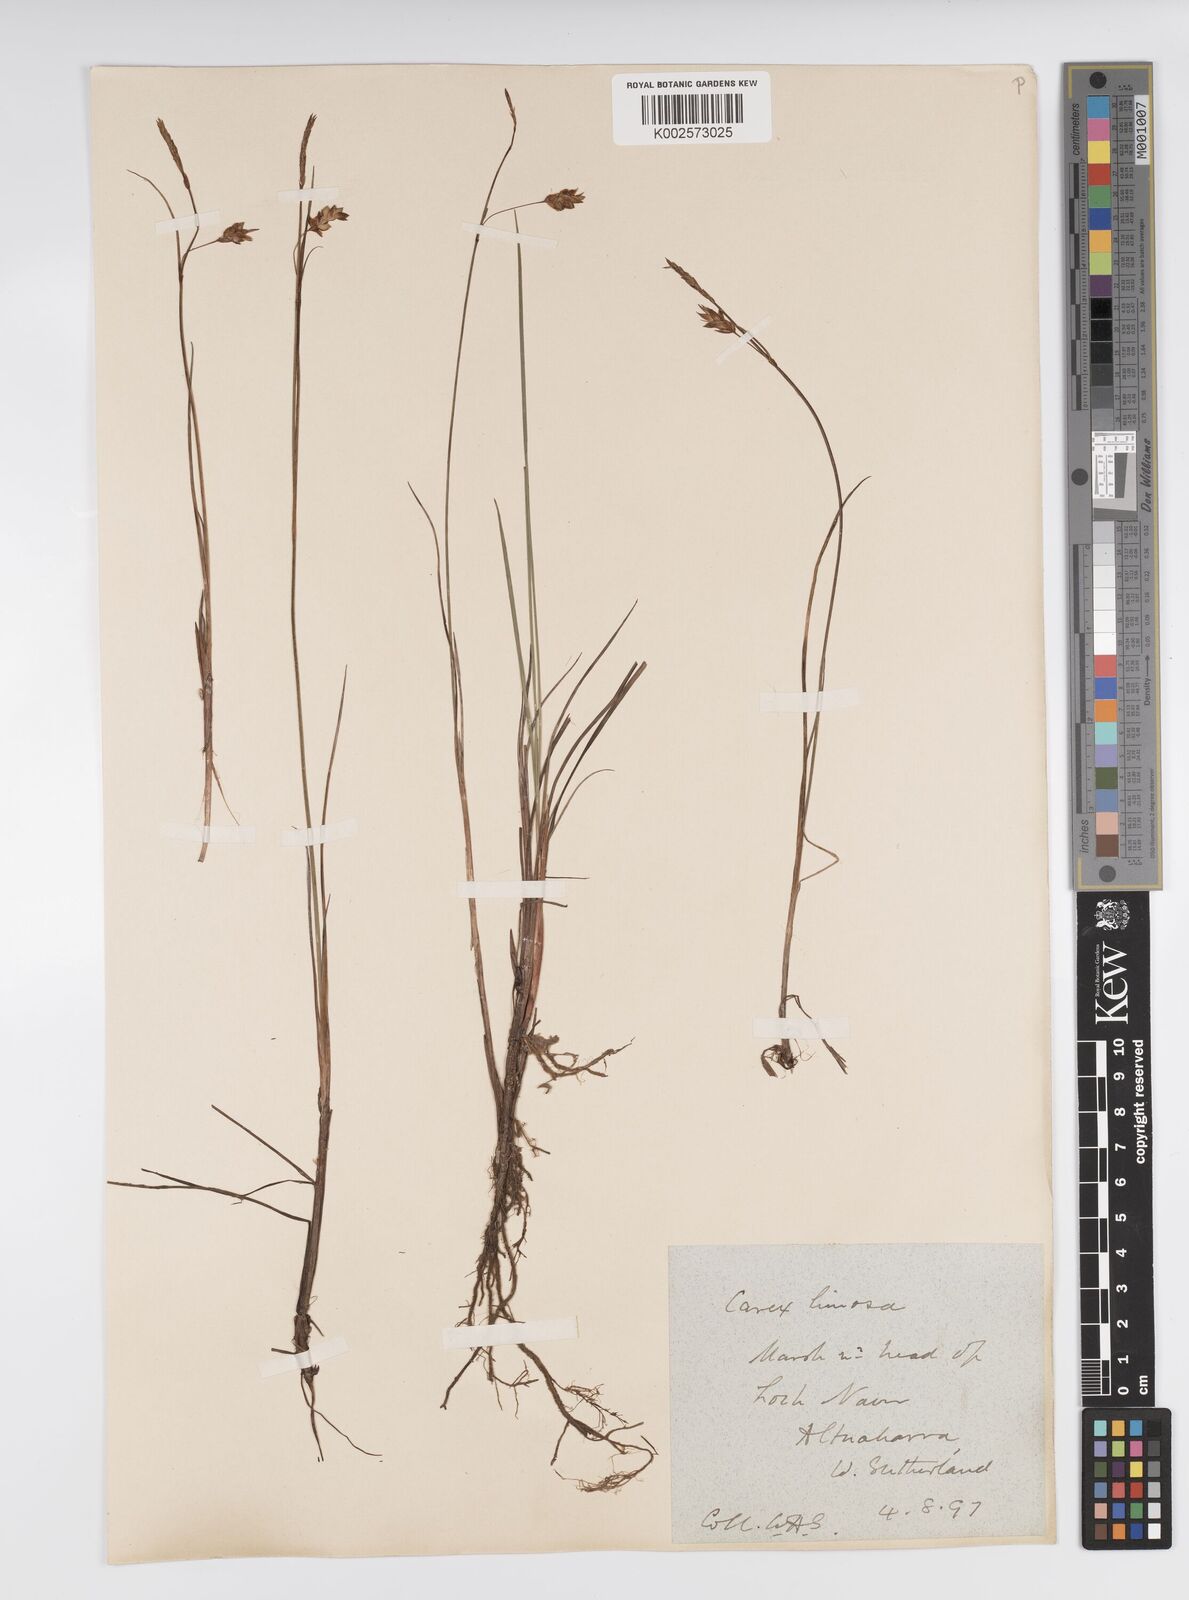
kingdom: Plantae
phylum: Tracheophyta
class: Liliopsida
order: Poales
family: Cyperaceae
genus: Carex
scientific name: Carex limosa
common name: Bog sedge
